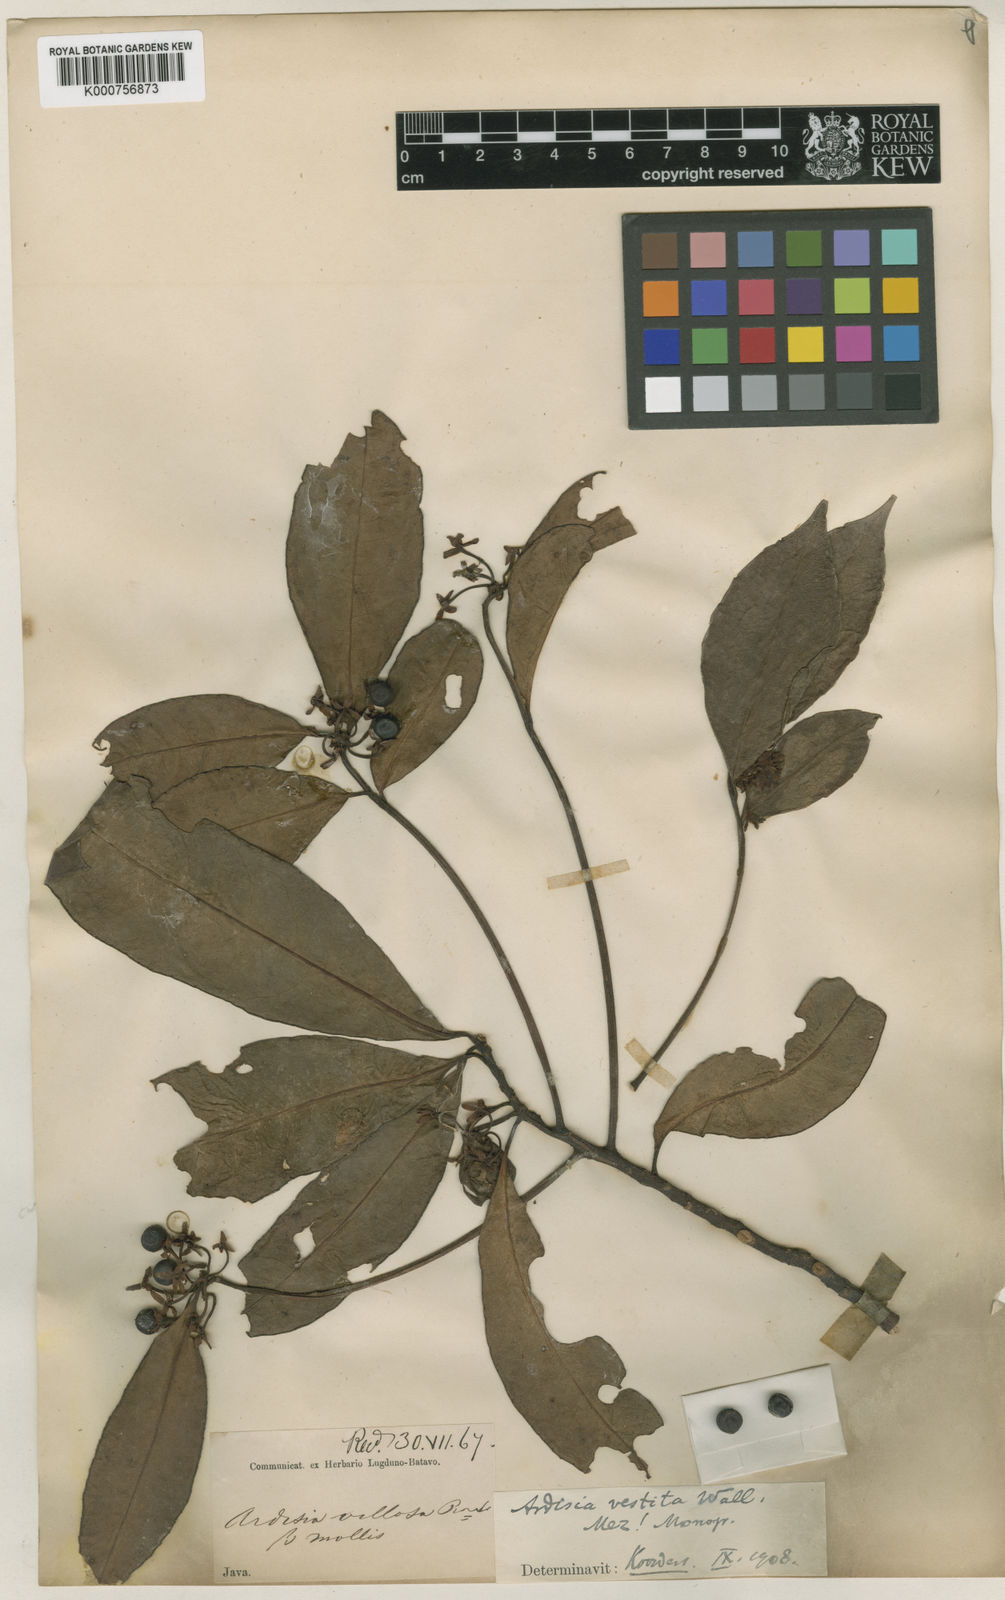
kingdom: Plantae
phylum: Tracheophyta
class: Magnoliopsida
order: Ericales
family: Primulaceae
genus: Ardisia
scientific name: Ardisia villosa
